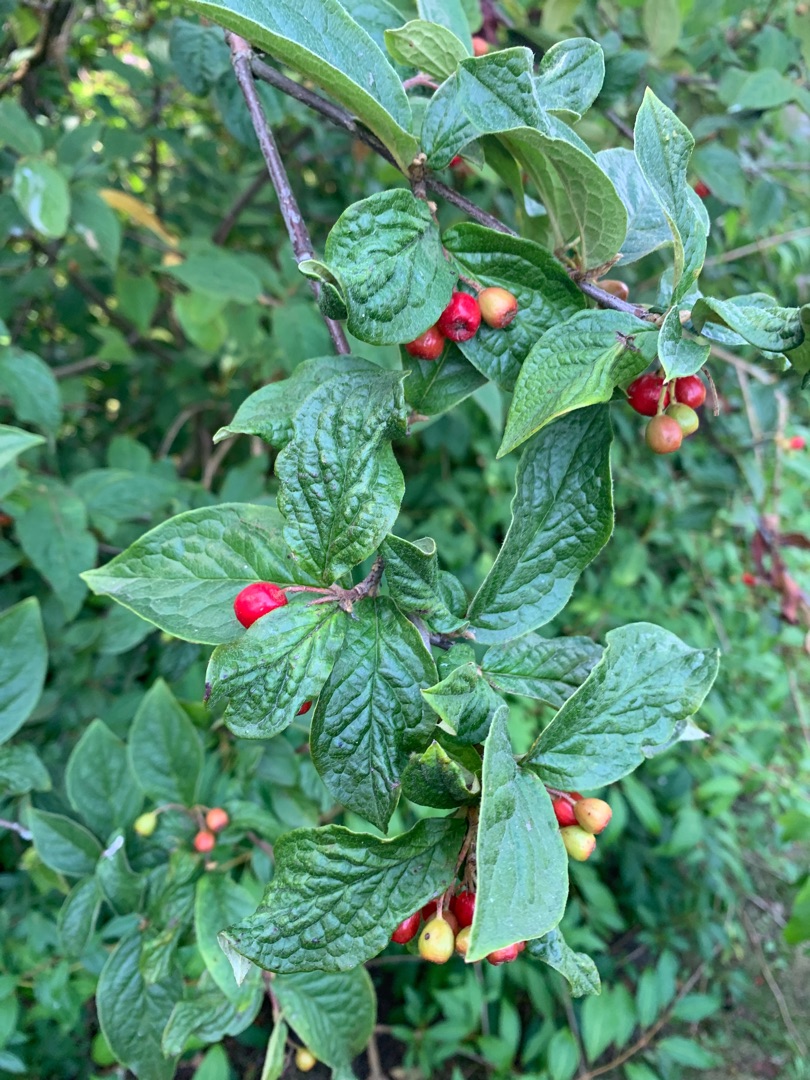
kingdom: Plantae
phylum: Tracheophyta
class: Magnoliopsida
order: Rosales
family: Rosaceae
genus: Cotoneaster
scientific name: Cotoneaster bullatus
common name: Buklet dværgmispel
